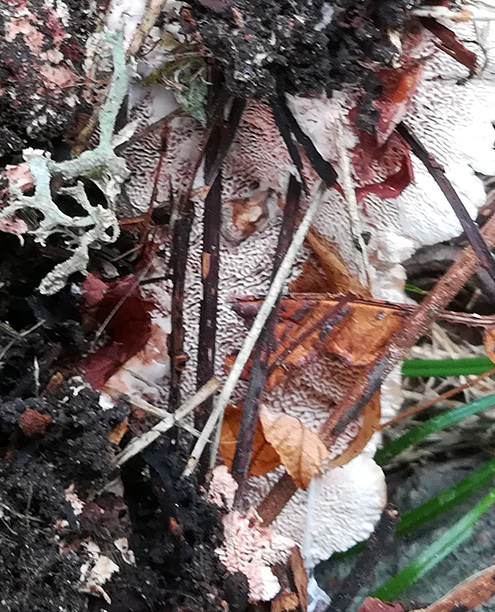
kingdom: Fungi
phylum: Basidiomycota
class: Agaricomycetes
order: Polyporales
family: Podoscyphaceae
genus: Abortiporus
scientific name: Abortiporus biennis
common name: rødmende pjalteporesvamp
